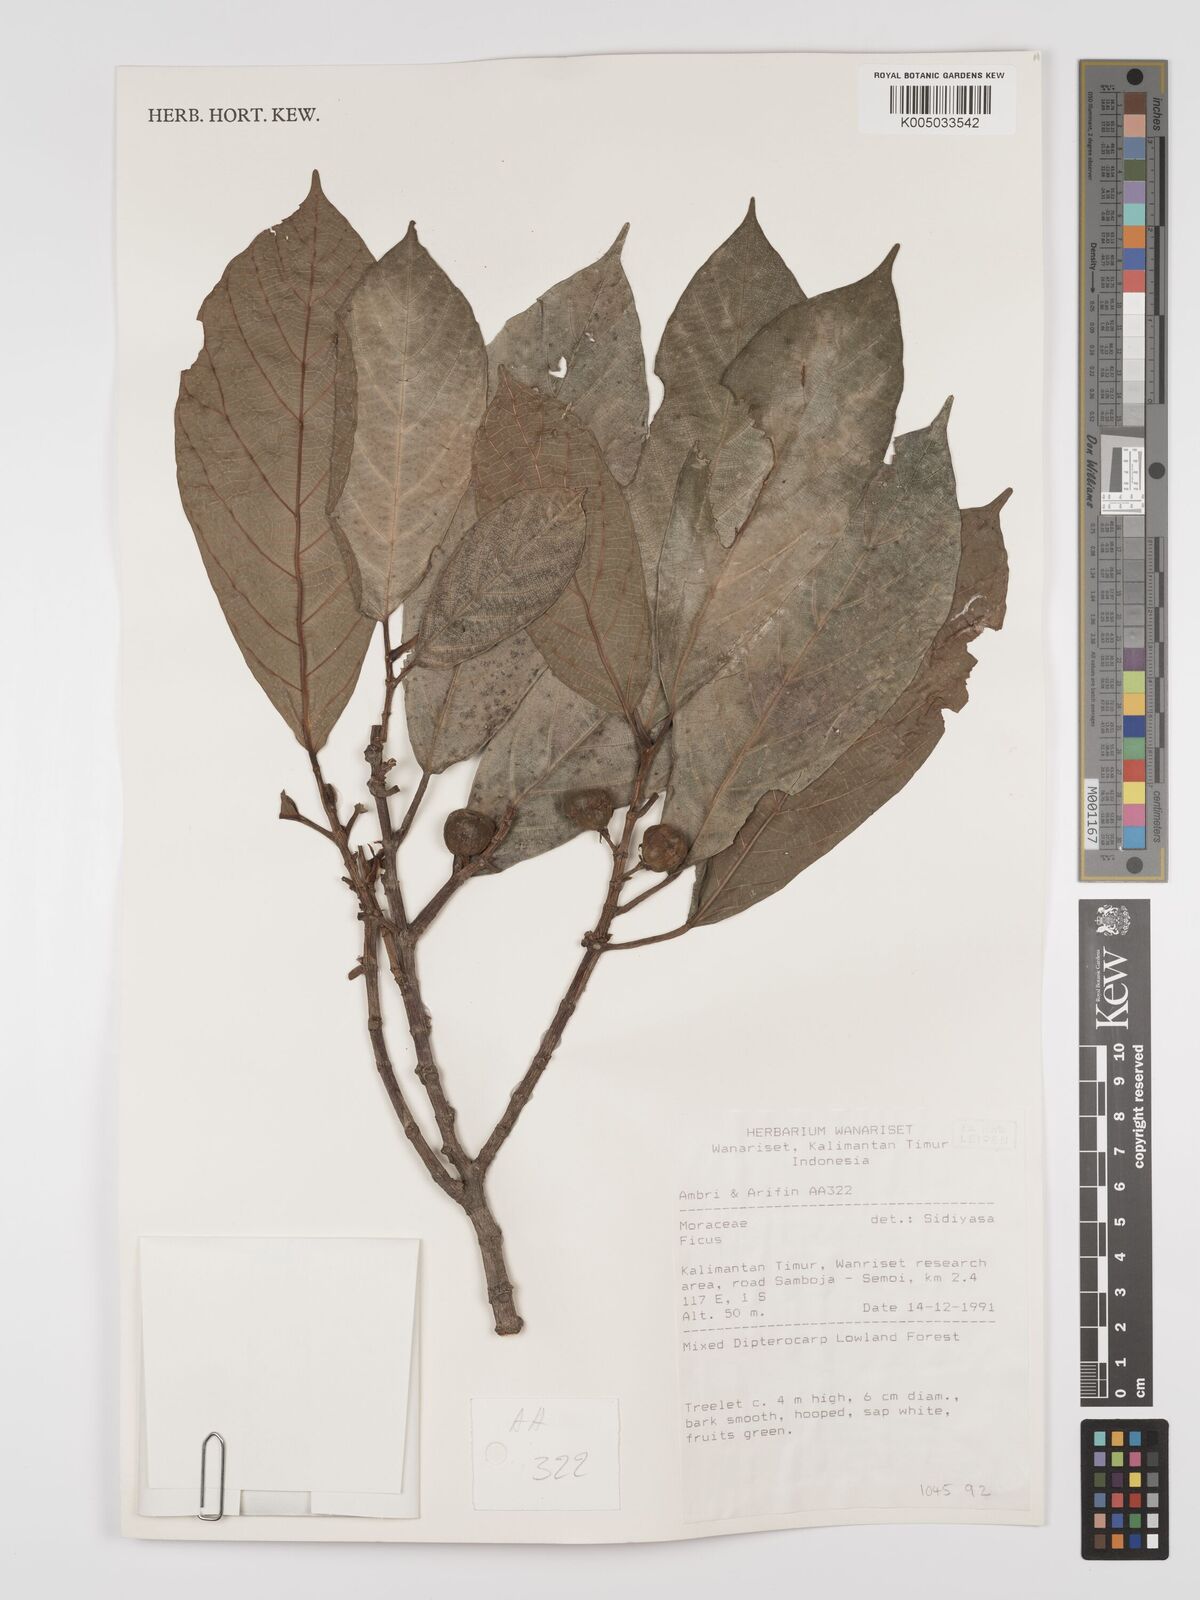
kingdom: Plantae
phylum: Tracheophyta
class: Magnoliopsida
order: Rosales
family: Moraceae
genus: Ficus
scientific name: Ficus
